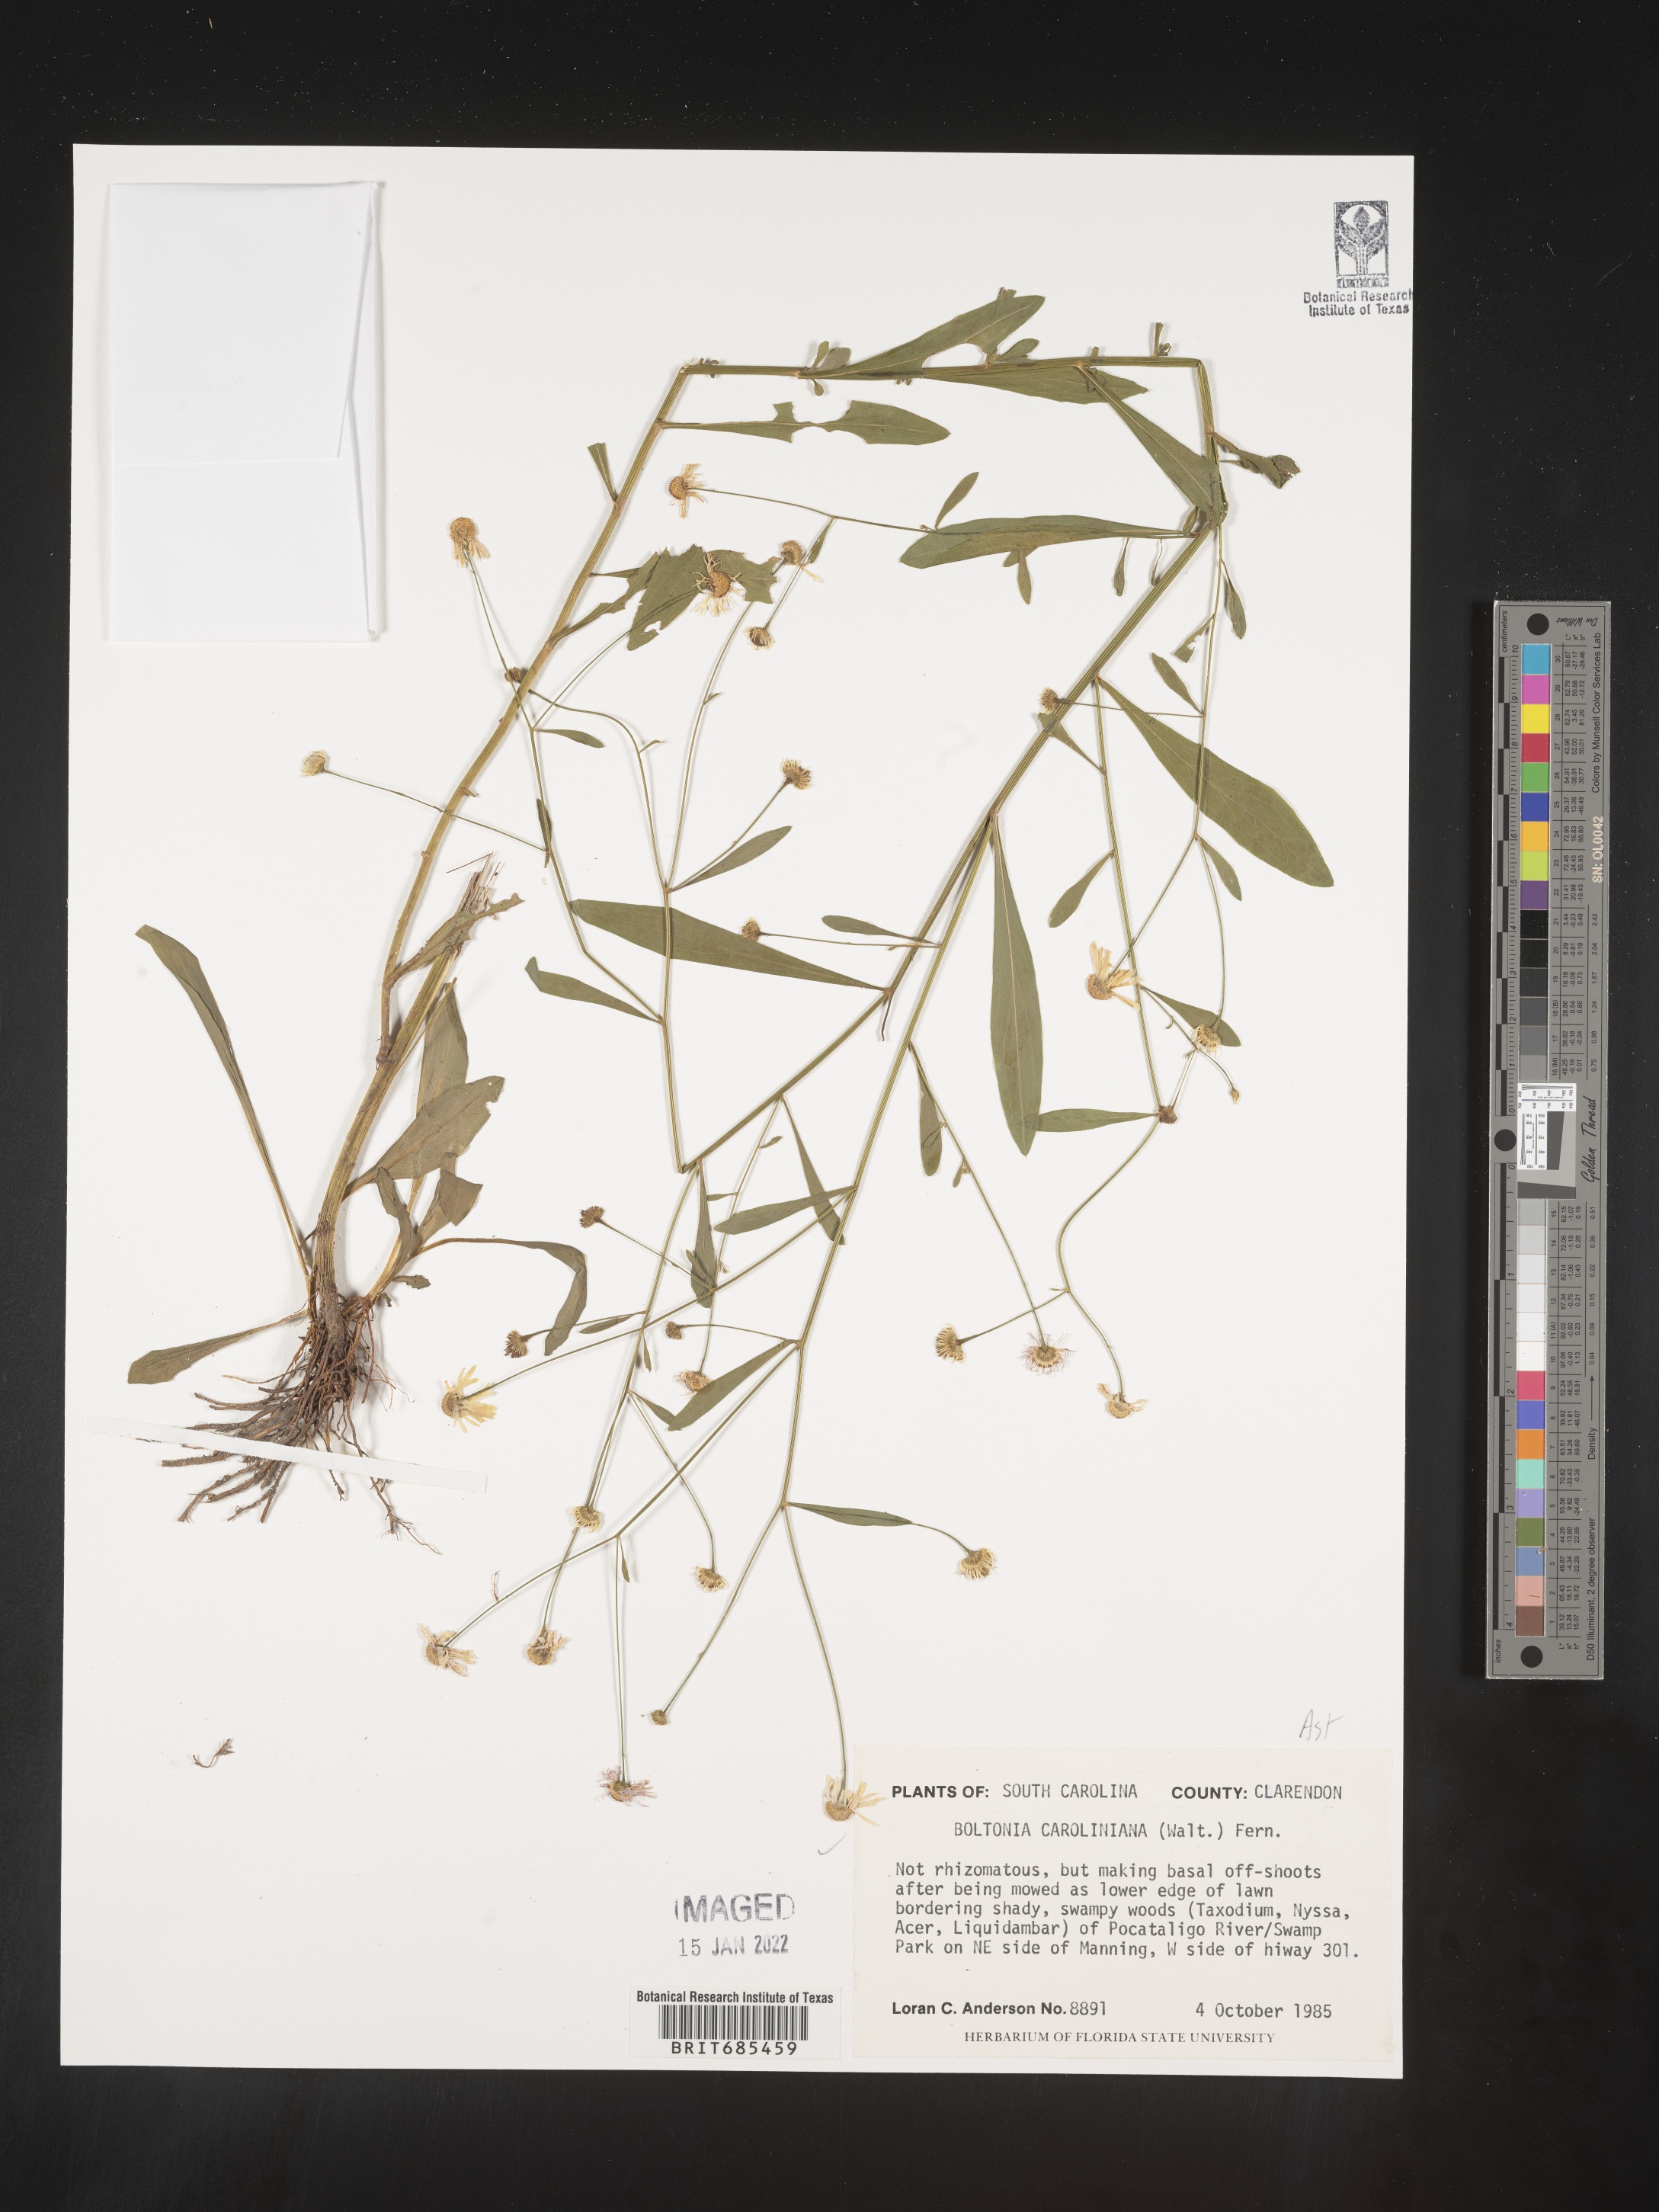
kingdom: Plantae
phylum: Tracheophyta
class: Magnoliopsida
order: Asterales
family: Asteraceae
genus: Boltonia
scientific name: Boltonia caroliniana
